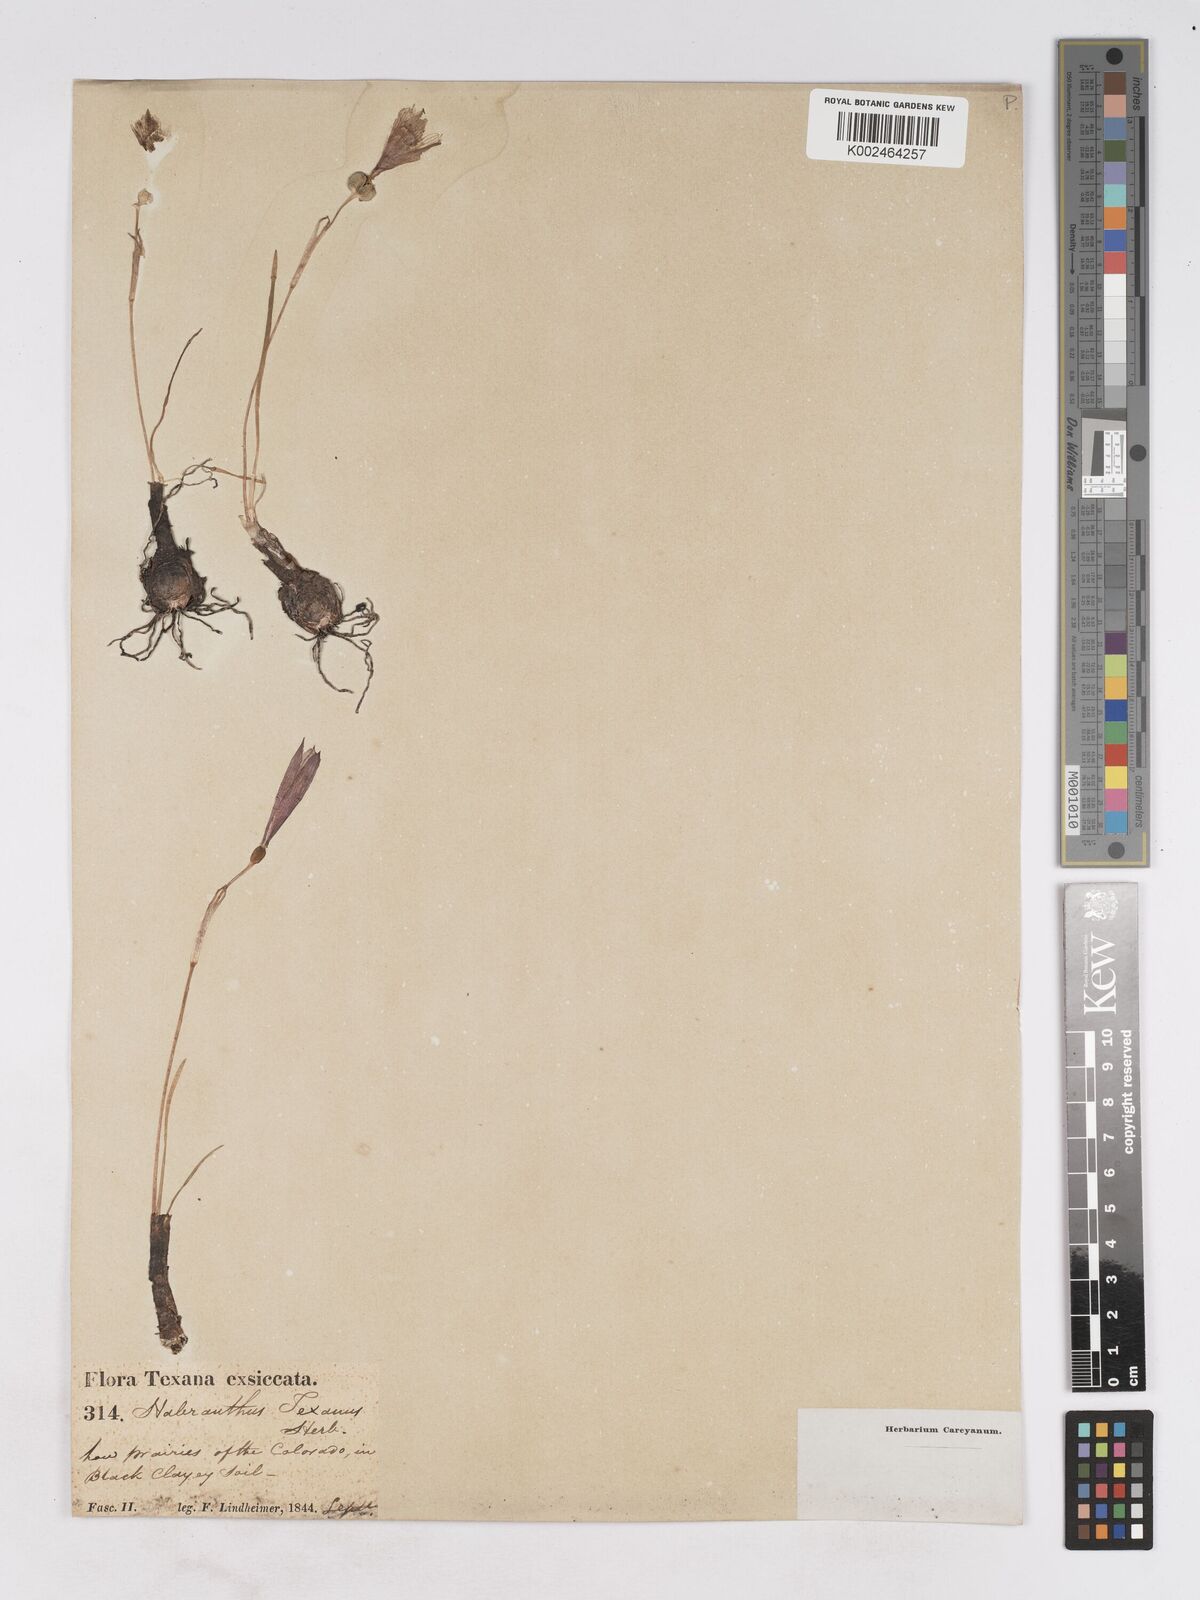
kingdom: Plantae
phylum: Tracheophyta
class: Liliopsida
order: Asparagales
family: Amaryllidaceae
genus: Zephyranthes
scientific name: Zephyranthes tubispatha
